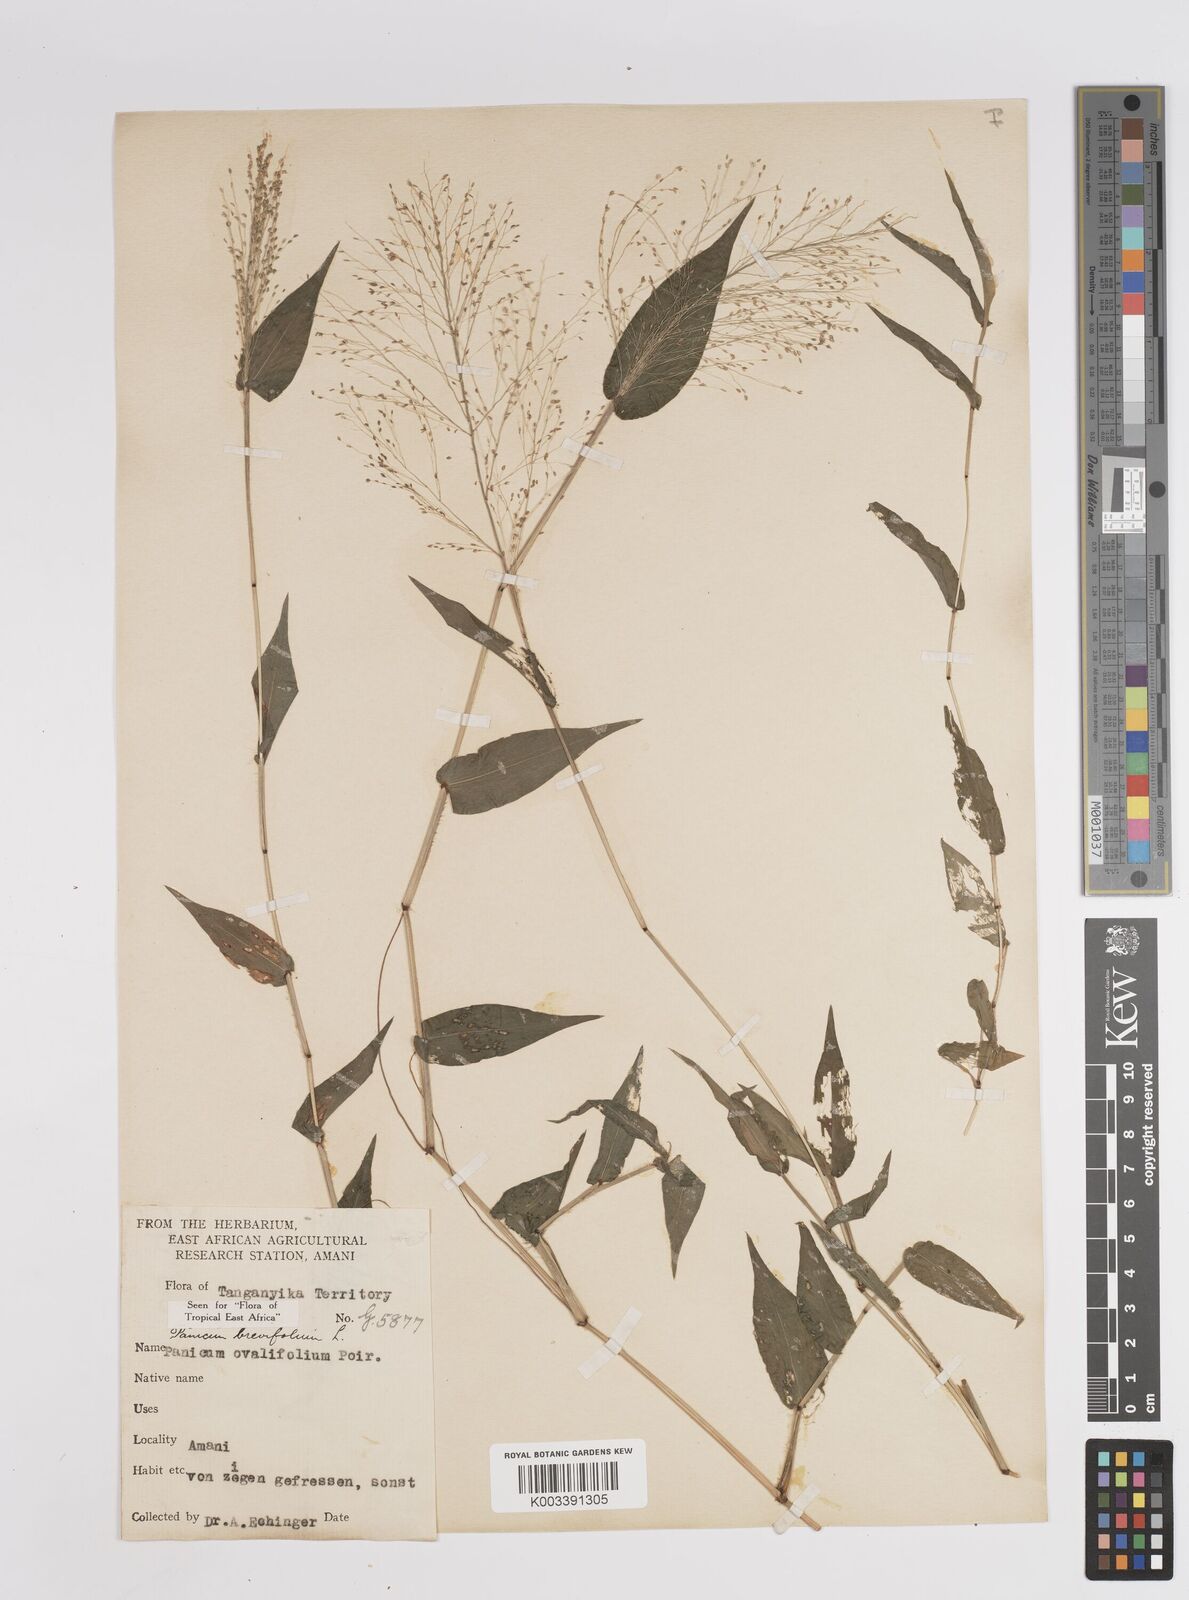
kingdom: Plantae
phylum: Tracheophyta
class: Liliopsida
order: Poales
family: Poaceae
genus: Panicum
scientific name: Panicum brevifolium
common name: Shortleaf panic grass
